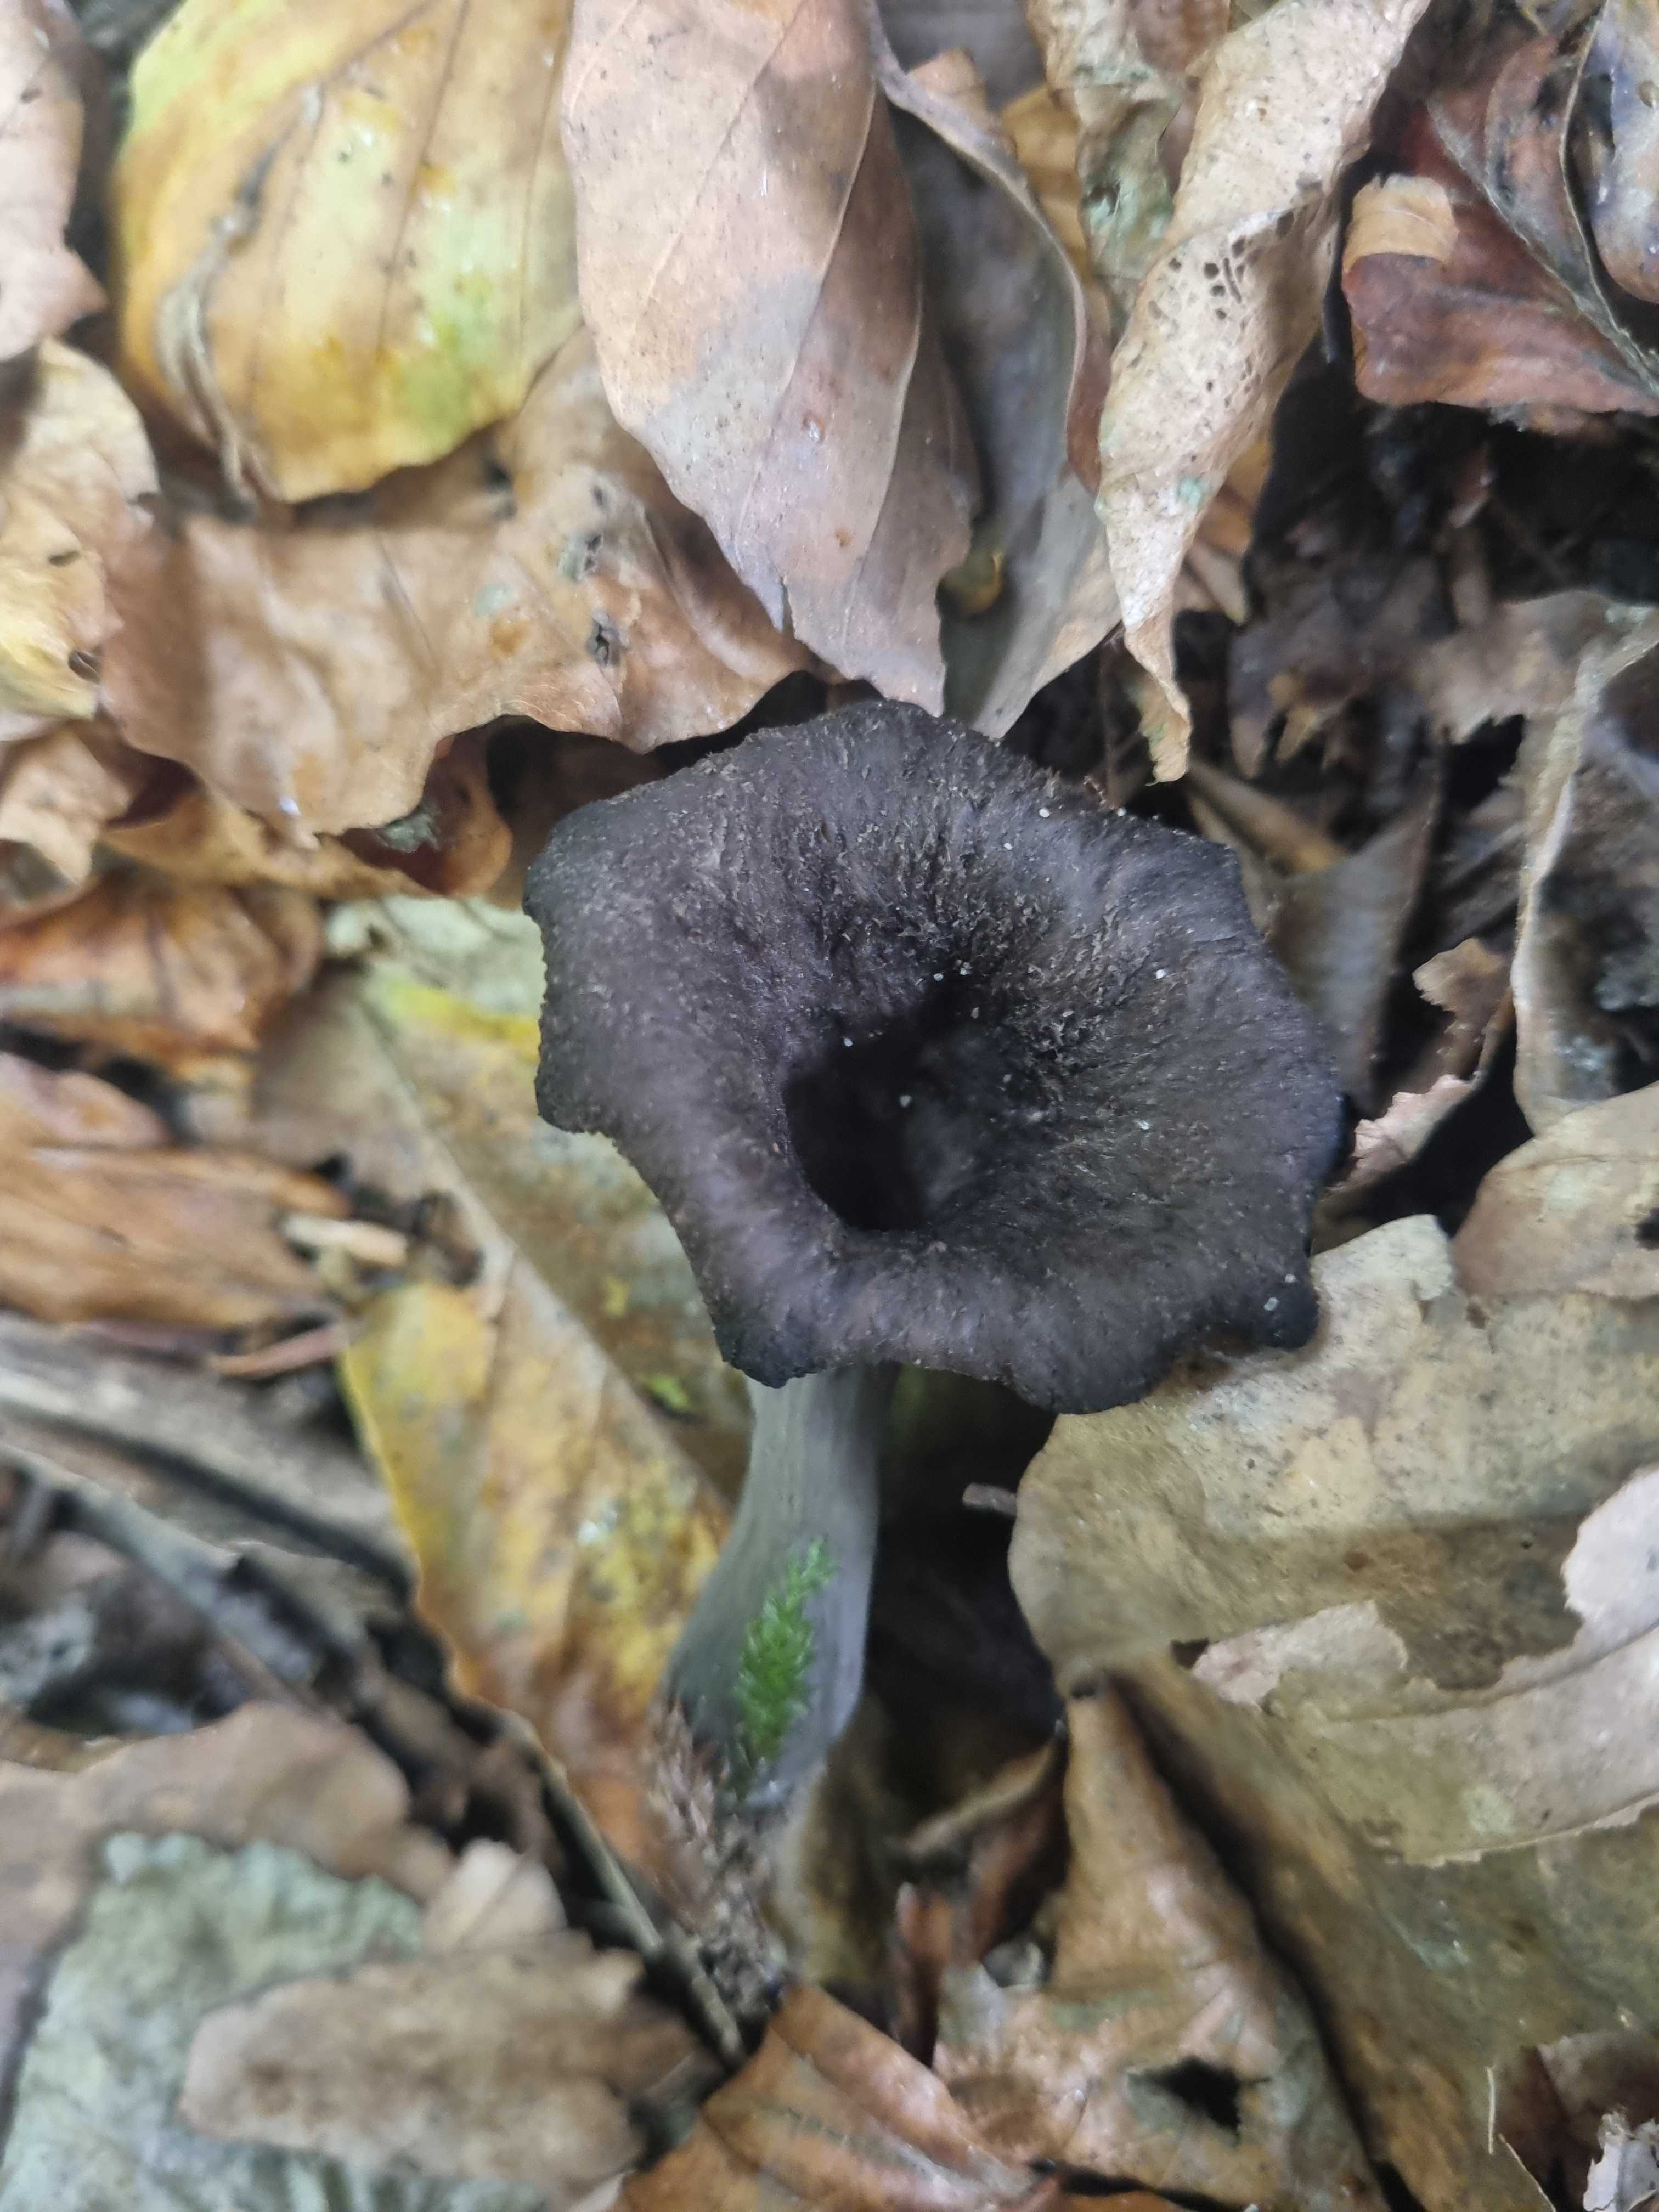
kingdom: Fungi
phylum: Basidiomycota
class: Agaricomycetes
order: Cantharellales
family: Hydnaceae
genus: Craterellus
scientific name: Craterellus cornucopioides
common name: trompetsvamp
